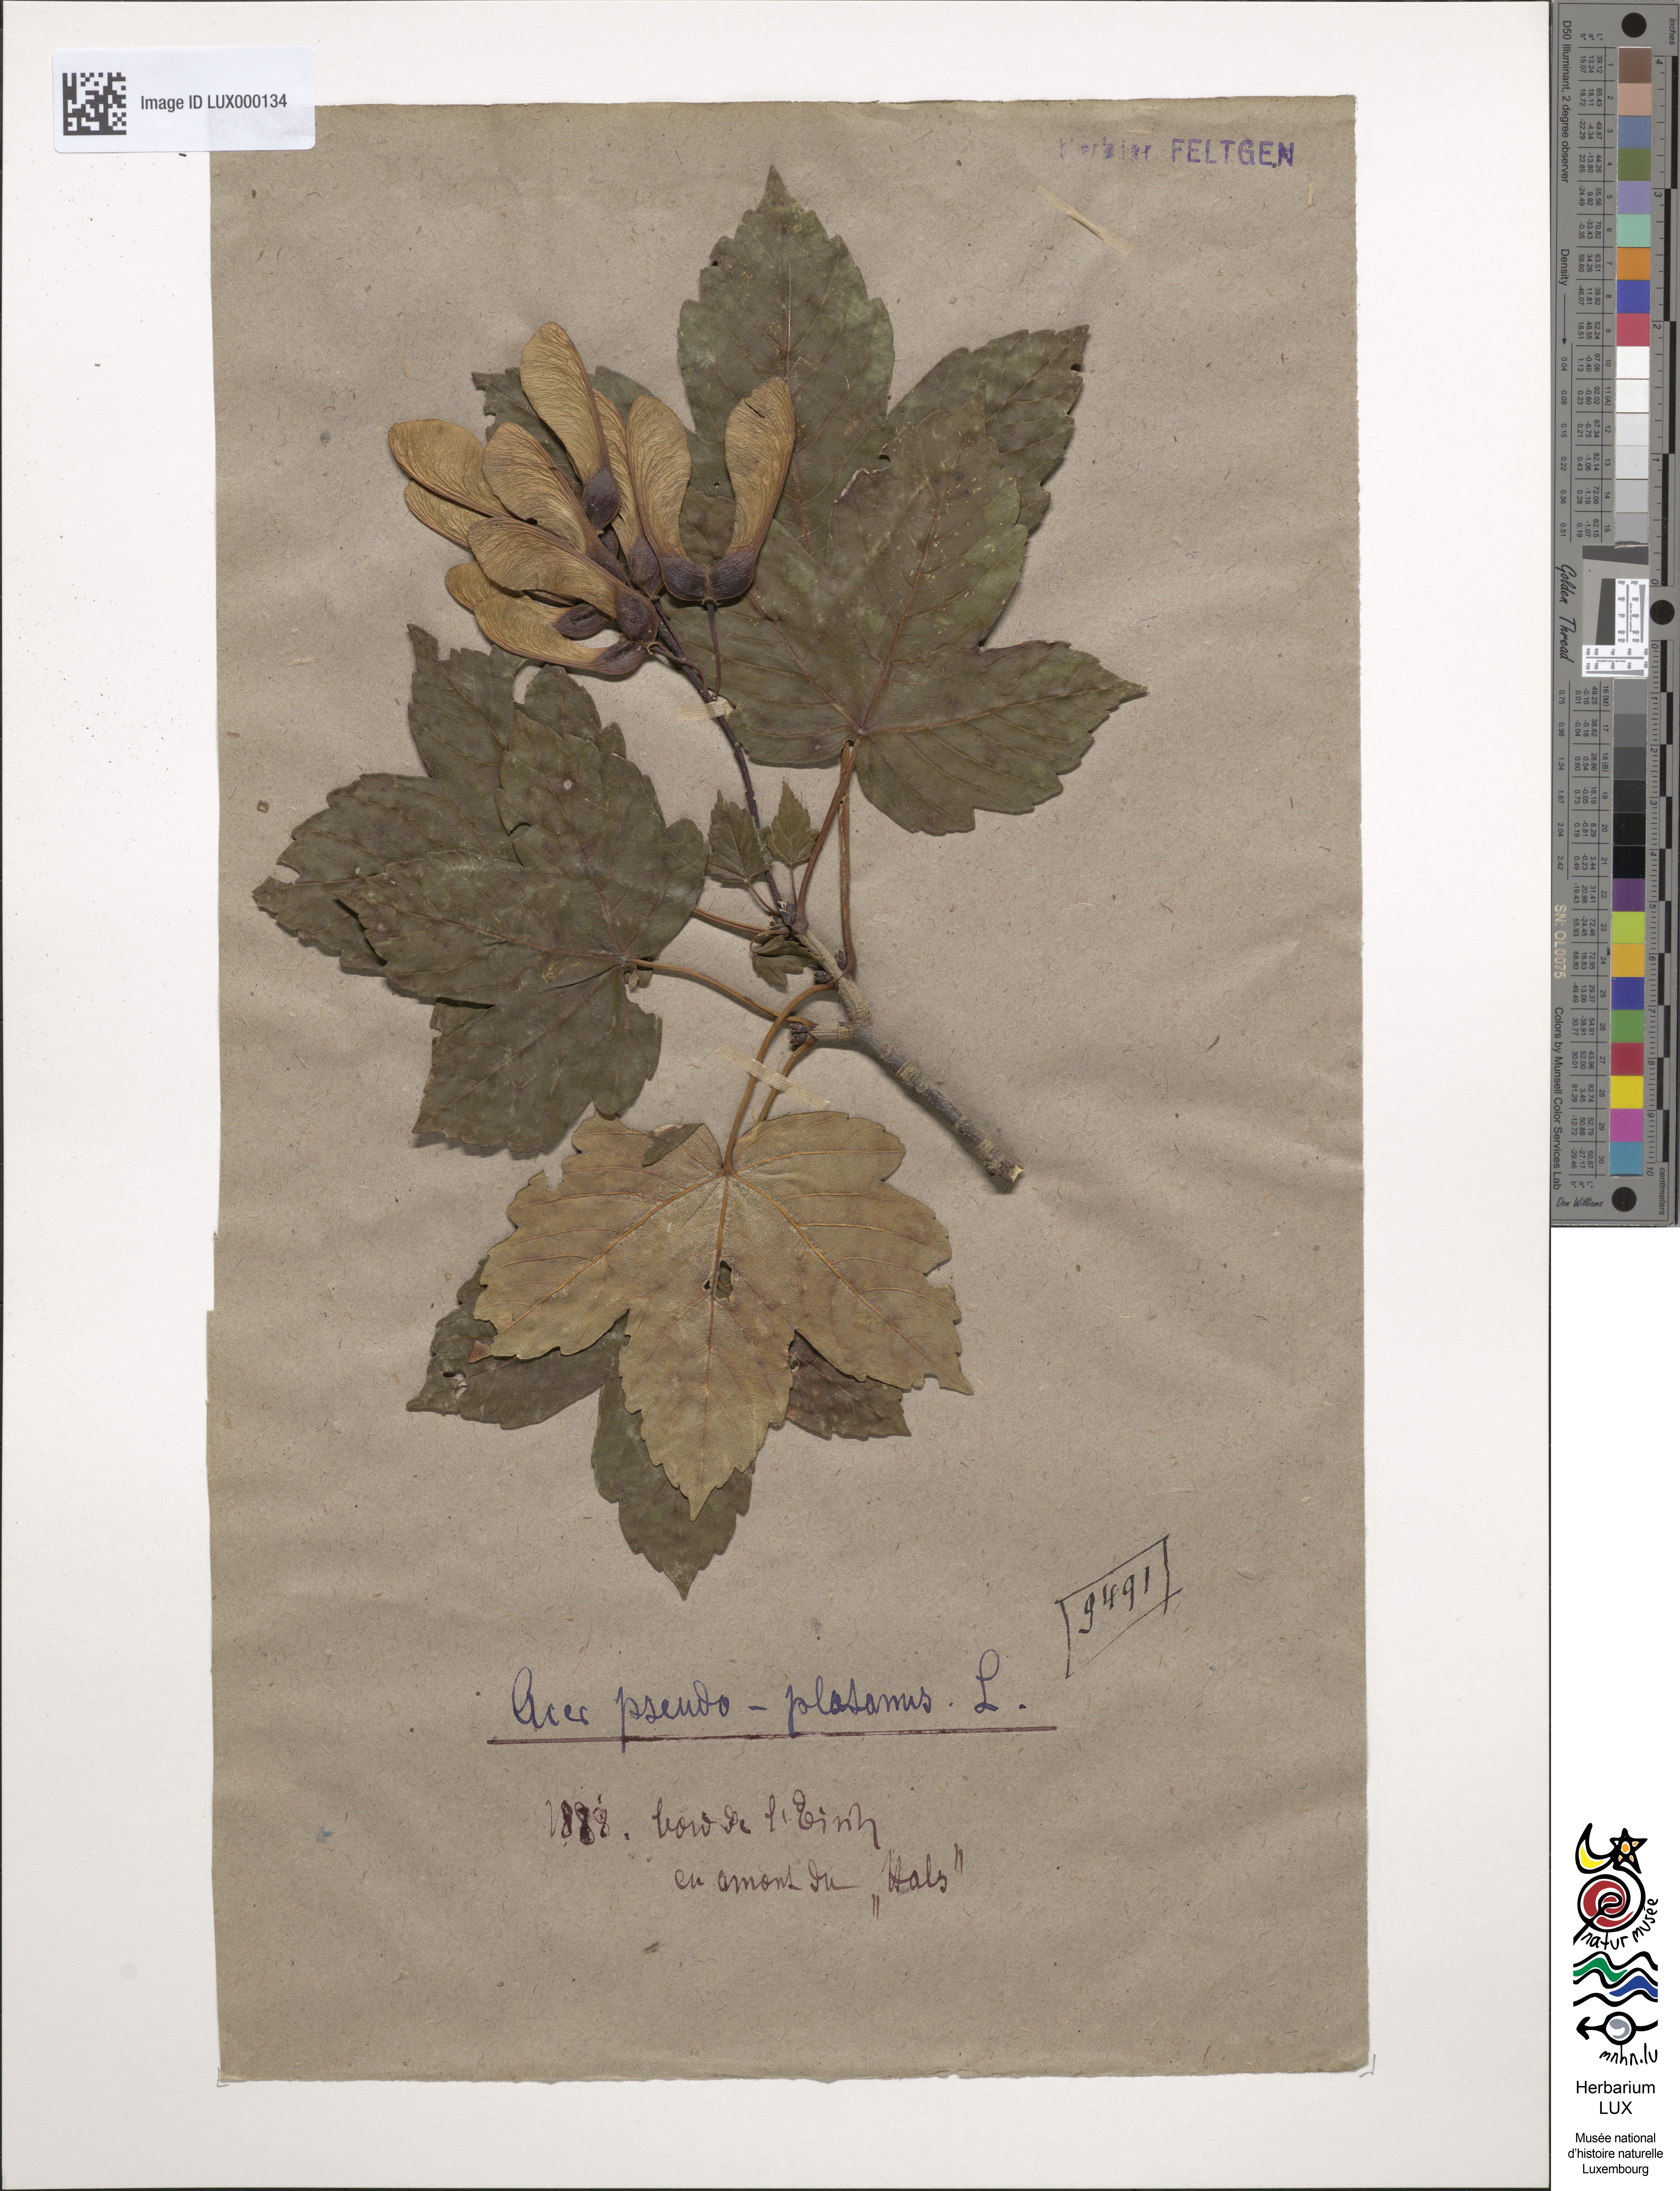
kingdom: Plantae
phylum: Tracheophyta
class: Magnoliopsida
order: Sapindales
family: Sapindaceae
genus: Acer
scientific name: Acer pseudoplatanus
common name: Sycamore
